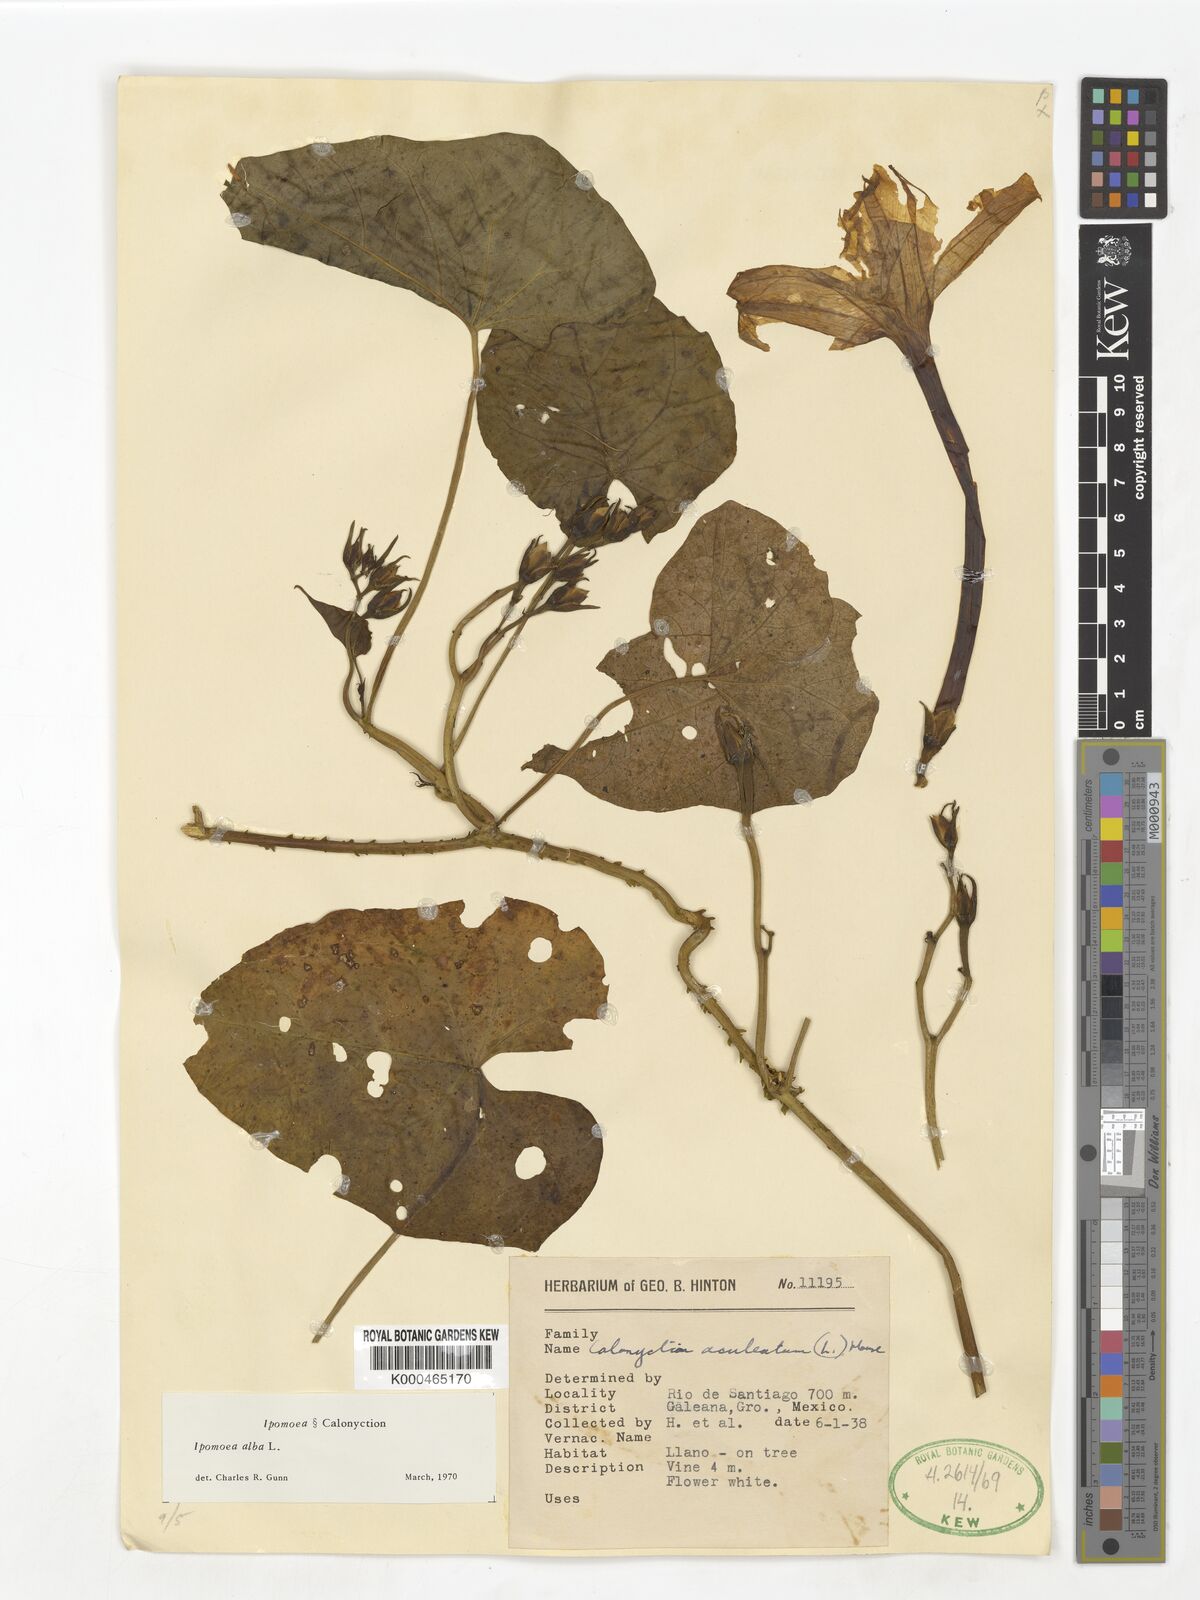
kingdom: Plantae
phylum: Tracheophyta
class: Magnoliopsida
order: Solanales
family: Convolvulaceae
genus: Ipomoea
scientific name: Ipomoea alba
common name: Moonflower
